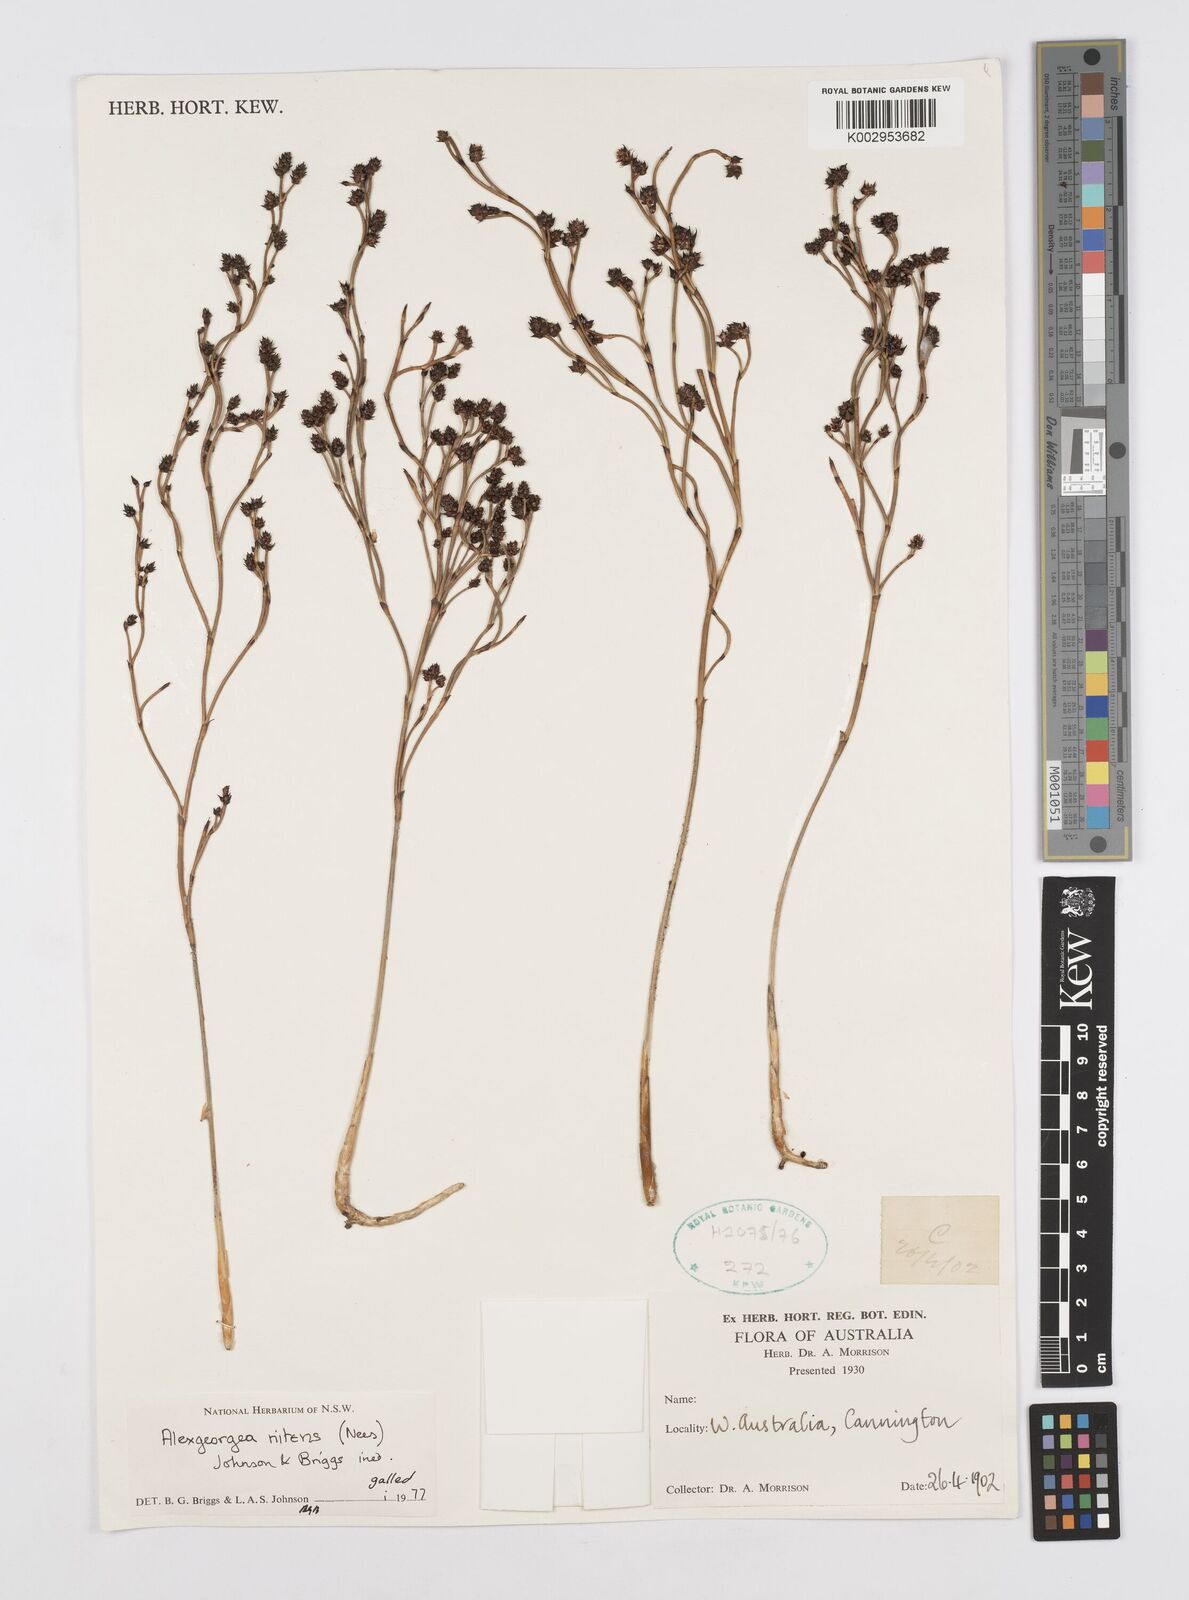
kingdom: Plantae
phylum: Tracheophyta
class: Liliopsida
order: Poales
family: Restionaceae
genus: Alexgeorgea
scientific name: Alexgeorgea nitens
